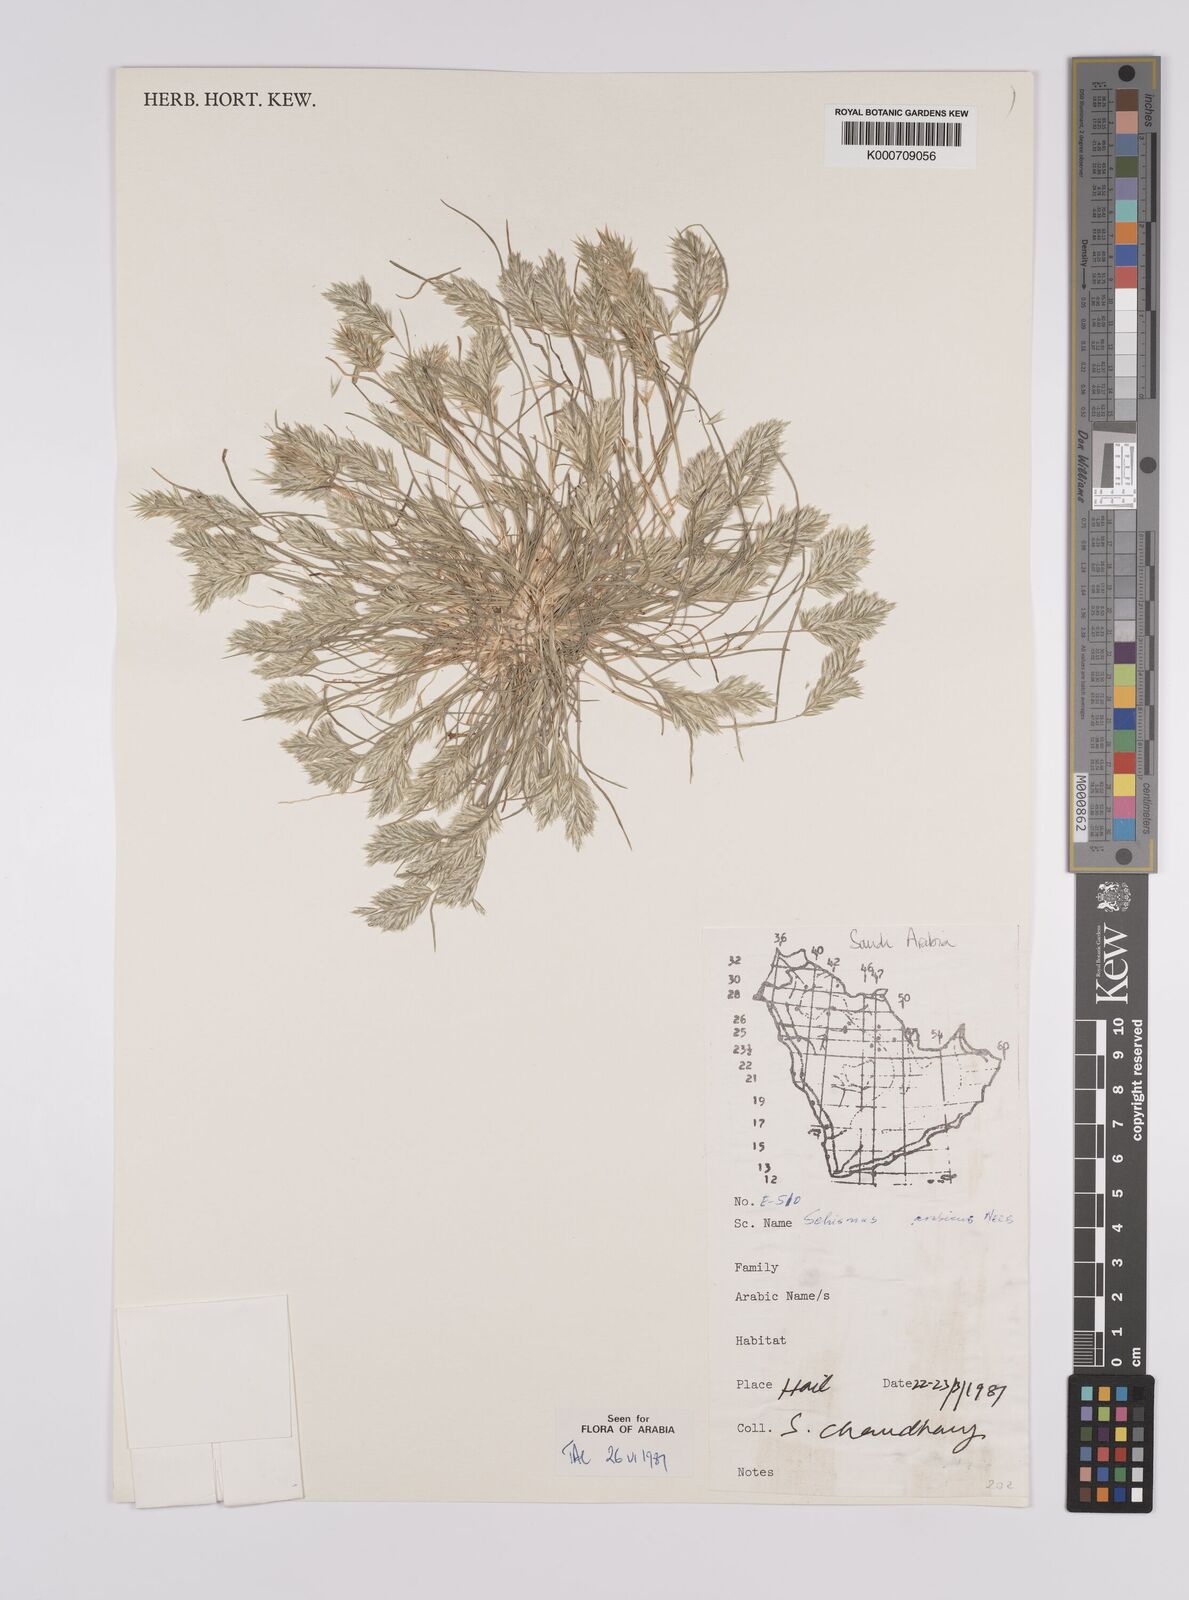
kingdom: Plantae
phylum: Tracheophyta
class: Liliopsida
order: Poales
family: Poaceae
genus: Schismus
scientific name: Schismus arabicus
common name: Arabian schismus
